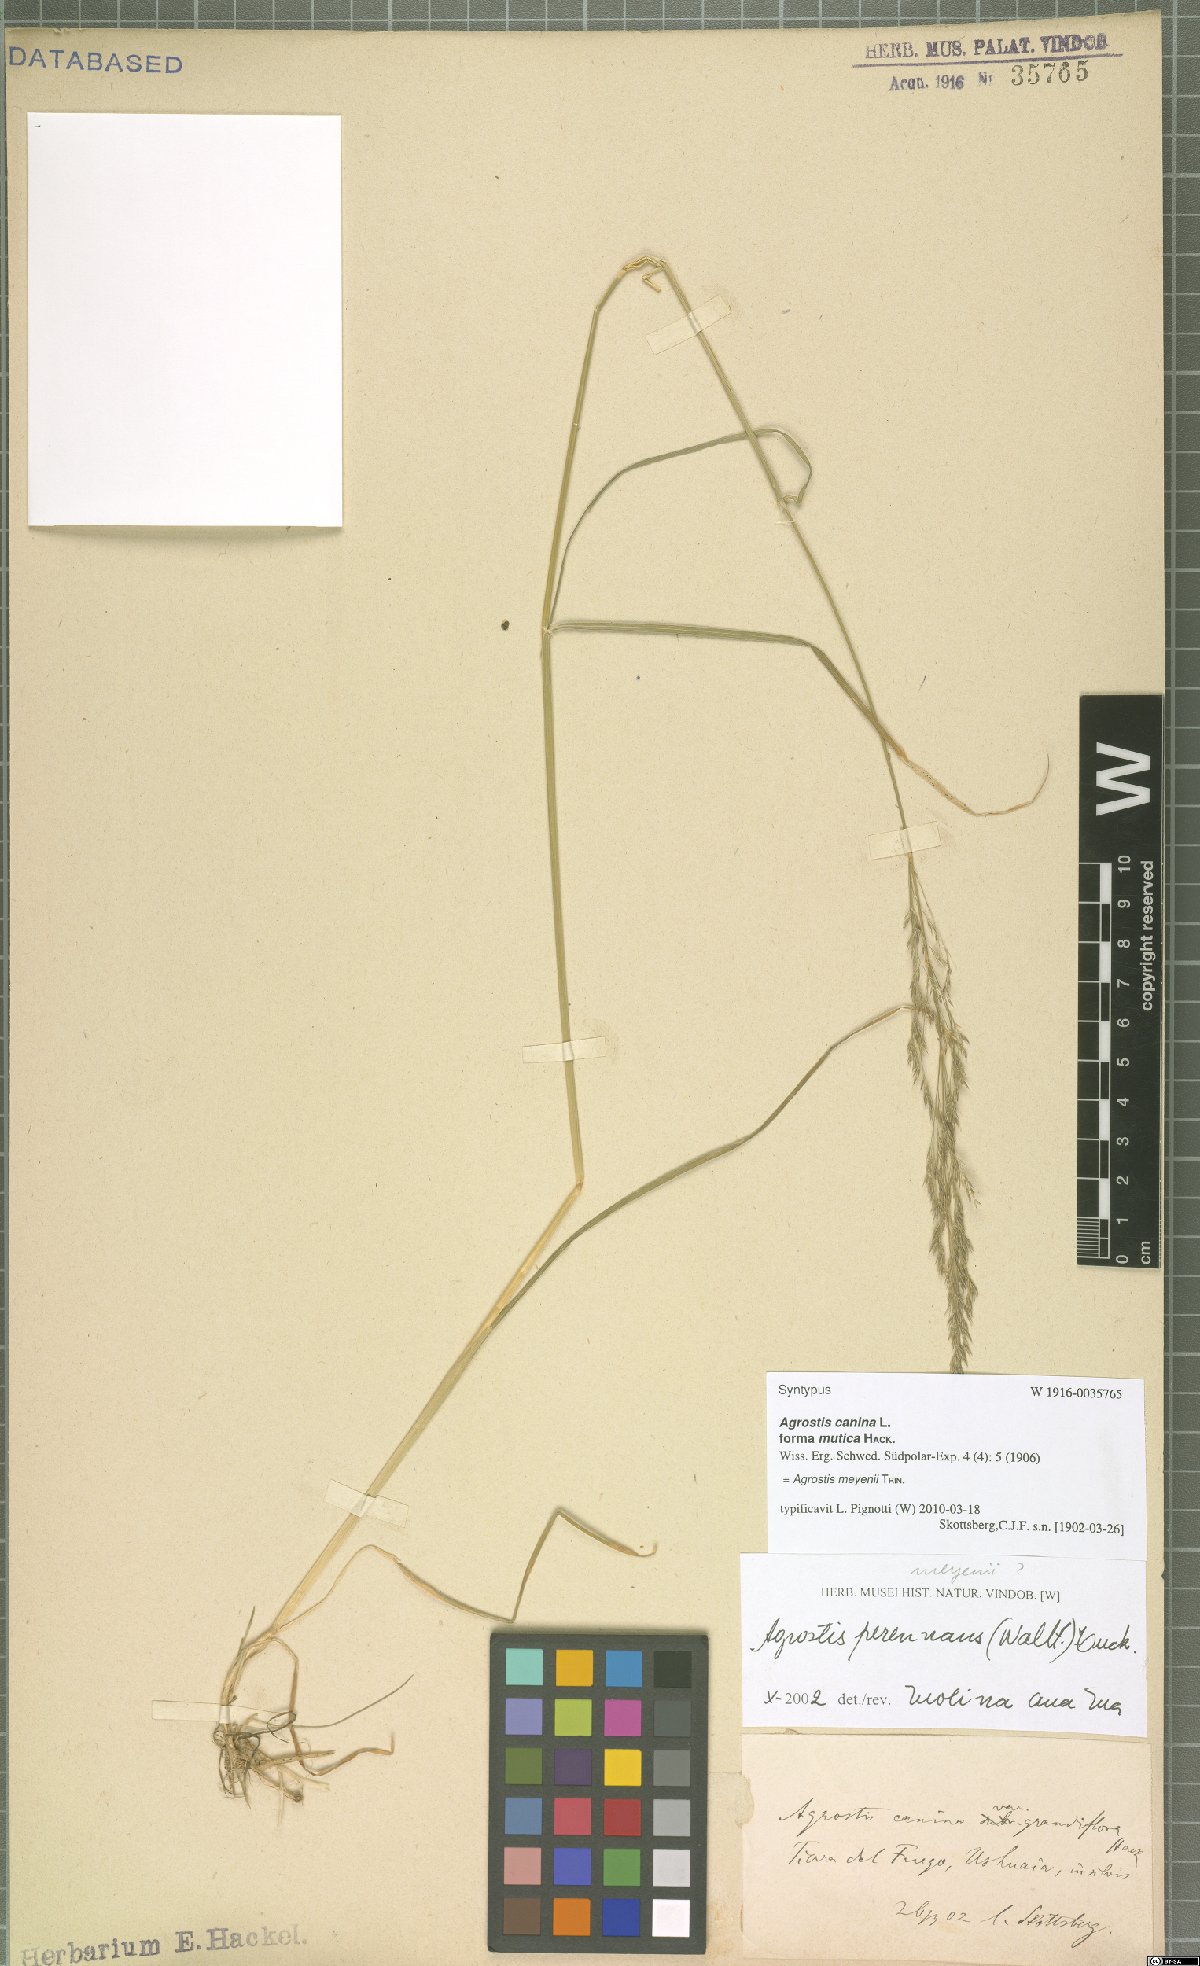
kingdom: Plantae
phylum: Tracheophyta
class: Liliopsida
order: Poales
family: Poaceae
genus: Agrostis
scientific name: Agrostis meyenii
